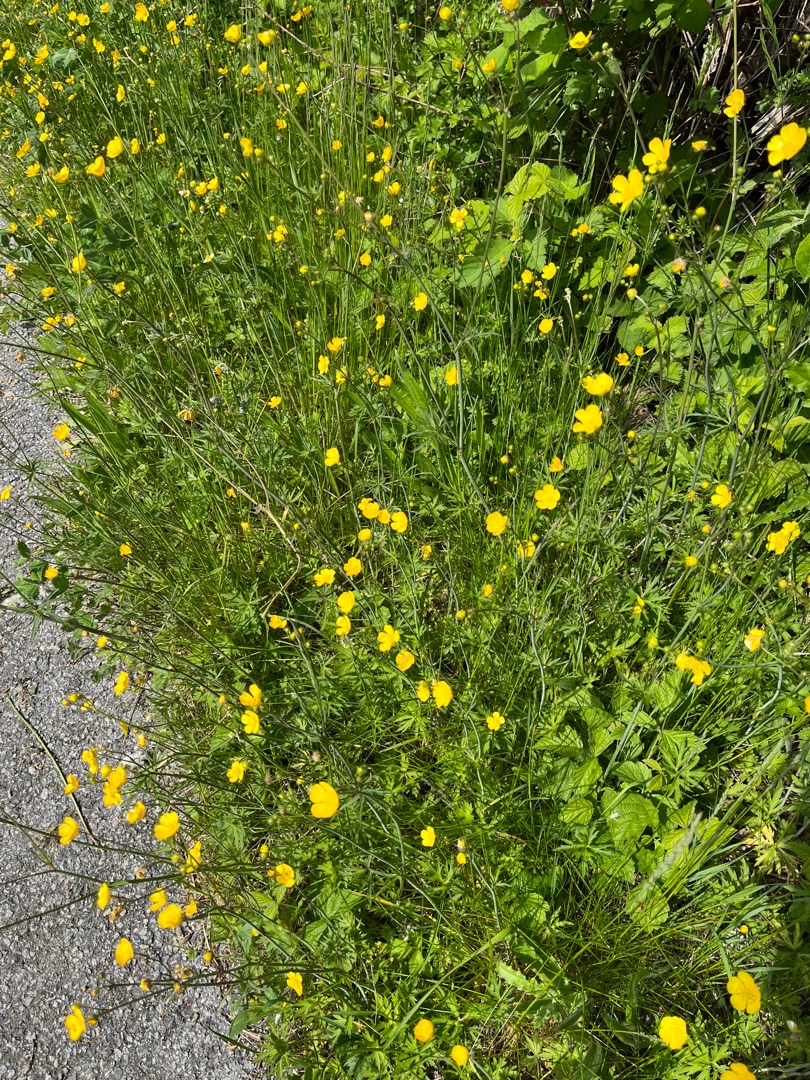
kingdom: Plantae
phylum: Tracheophyta
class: Magnoliopsida
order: Ranunculales
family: Ranunculaceae
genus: Ranunculus
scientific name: Ranunculus acris
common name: Bidende ranunkel
